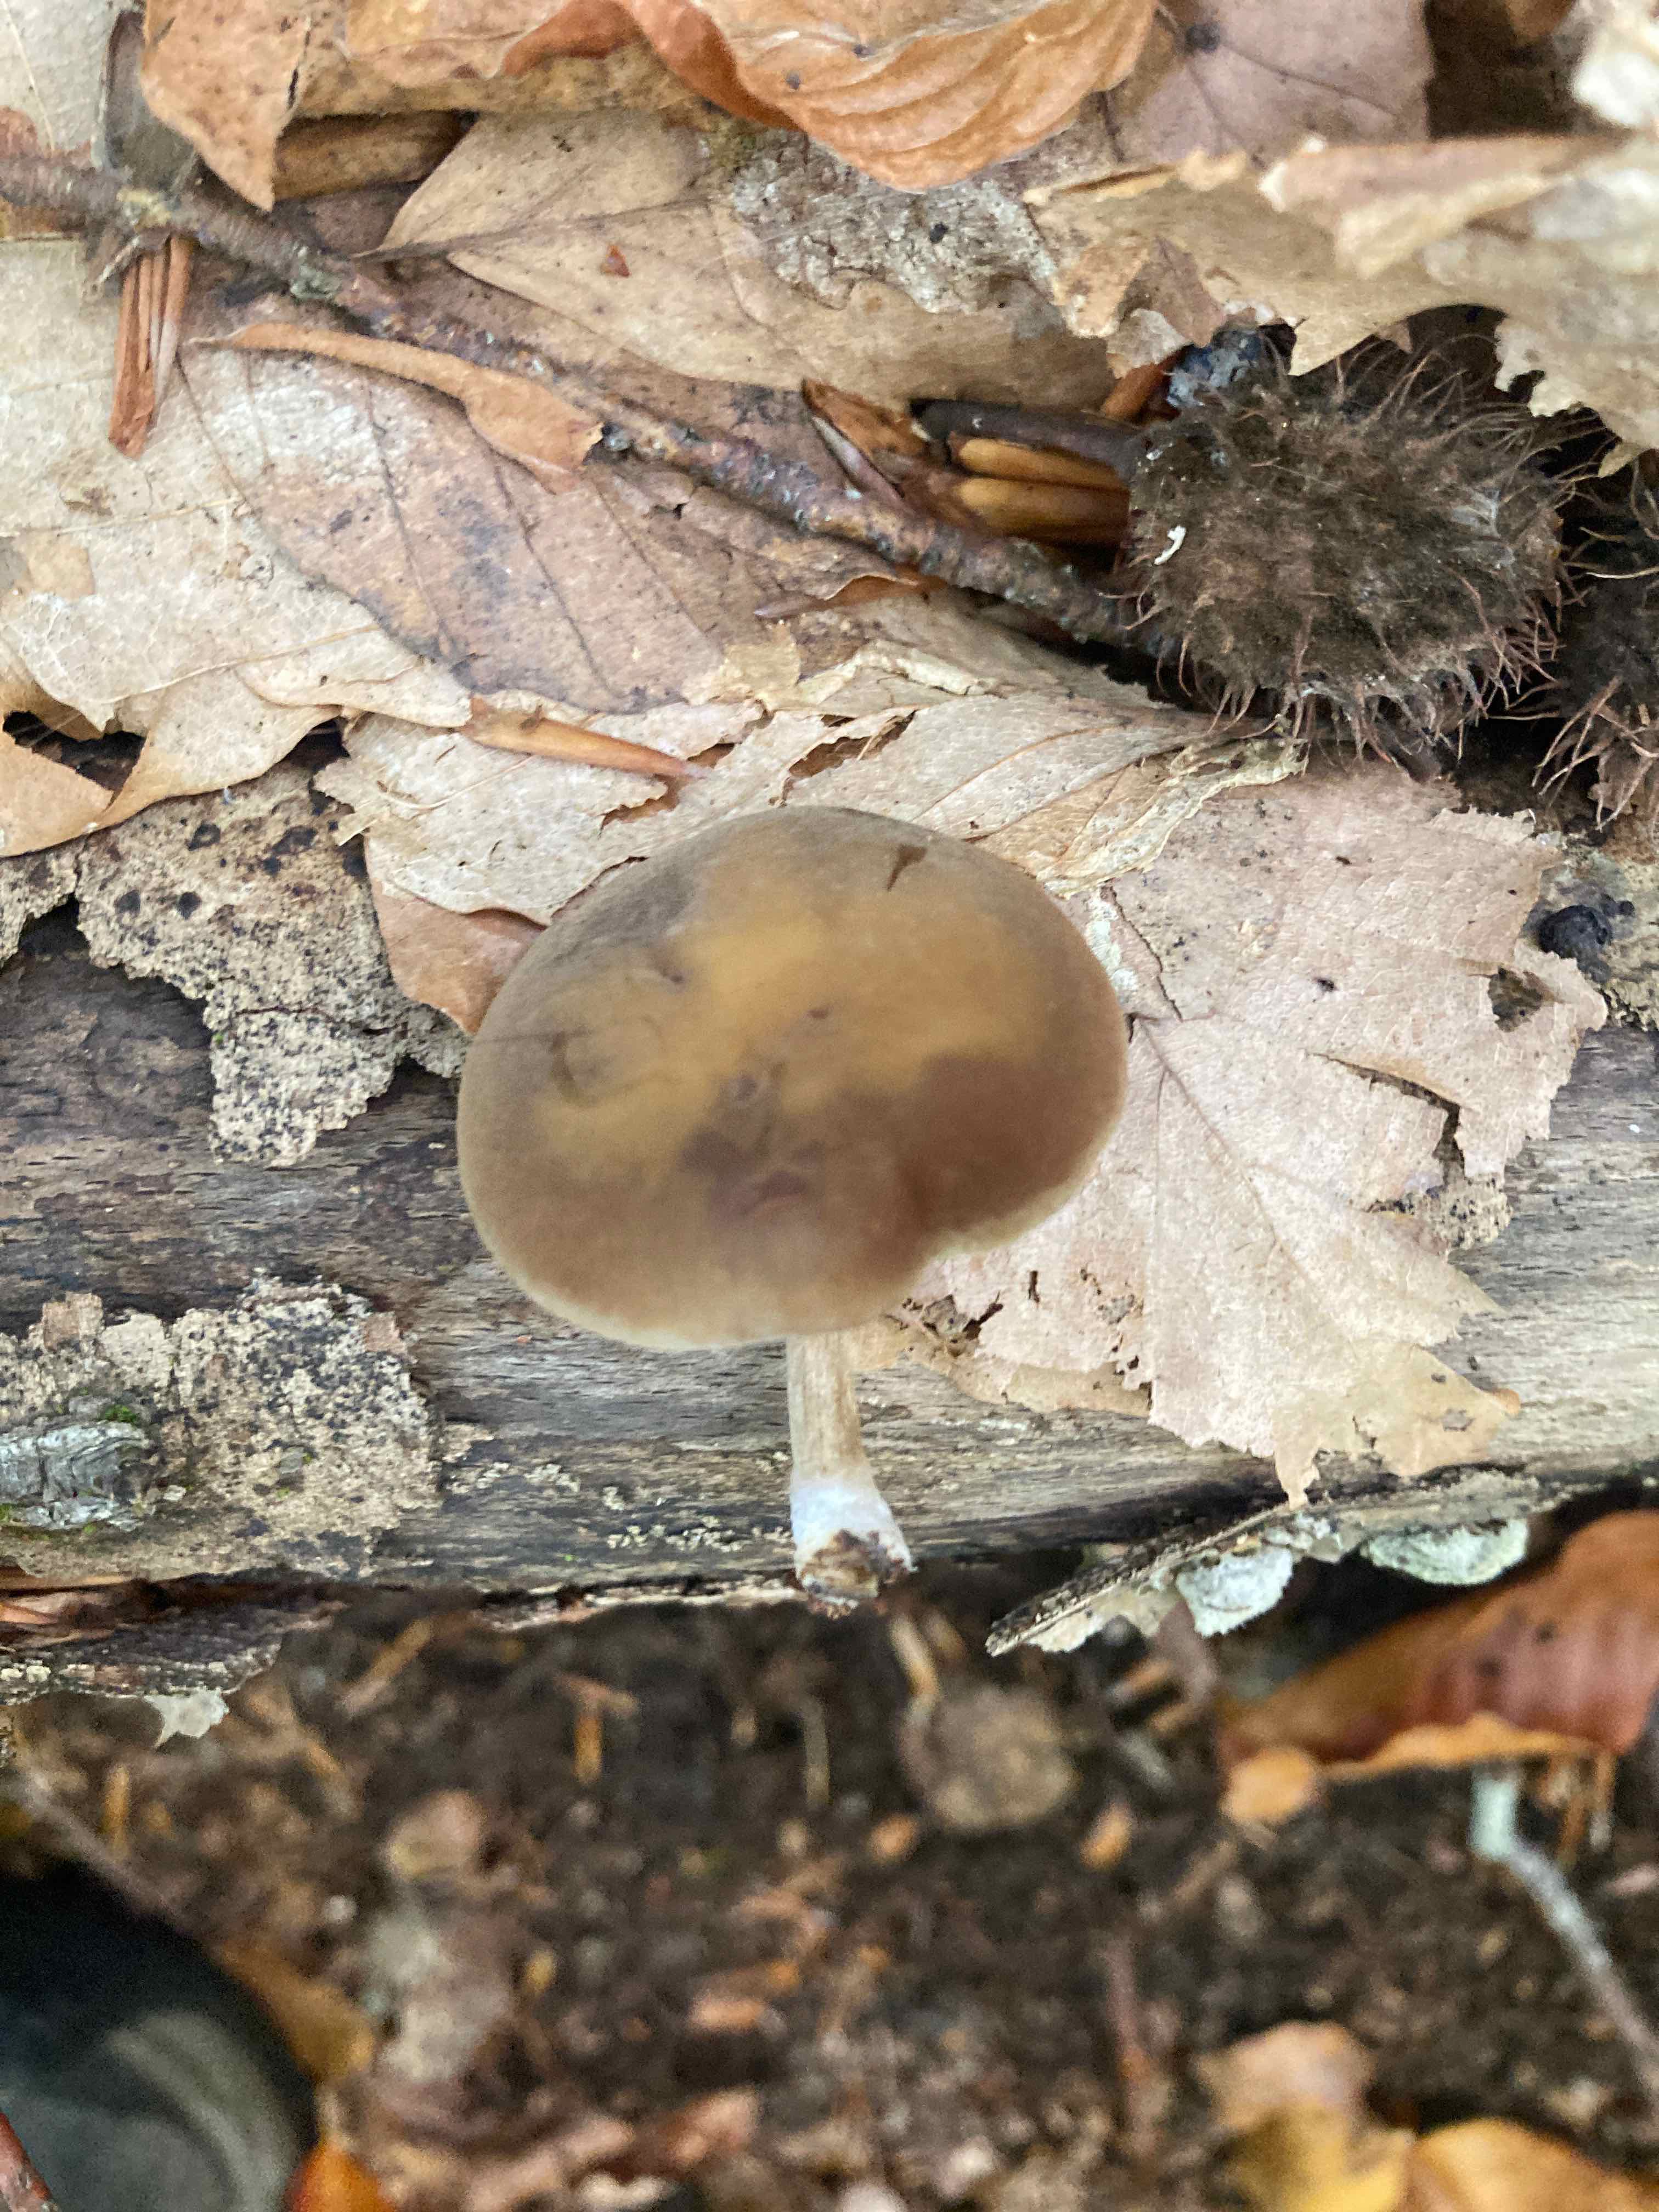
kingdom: Fungi
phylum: Basidiomycota
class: Agaricomycetes
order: Agaricales
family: Crepidotaceae
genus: Simocybe
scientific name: Simocybe sumptuosa
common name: stor skyggehat
